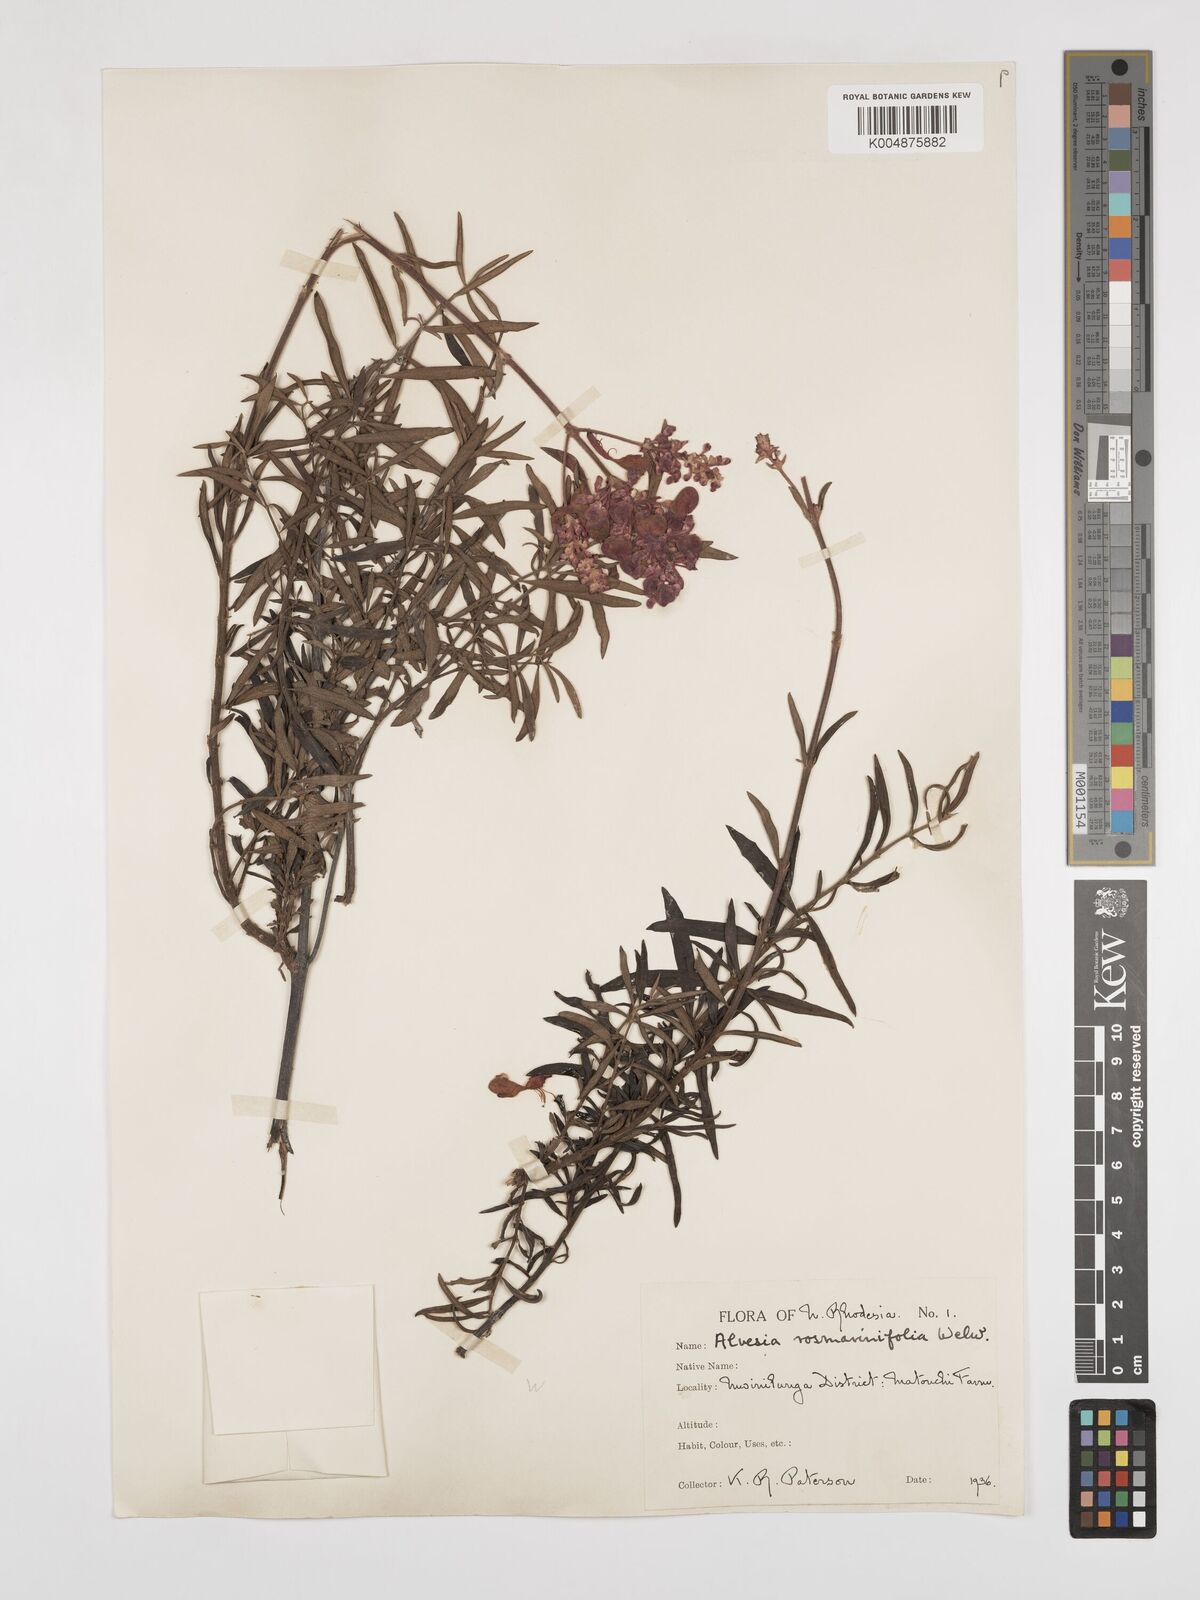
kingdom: Plantae
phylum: Tracheophyta
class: Magnoliopsida
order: Lamiales
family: Lamiaceae
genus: Alvesia
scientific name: Alvesia rosmarinifolia
